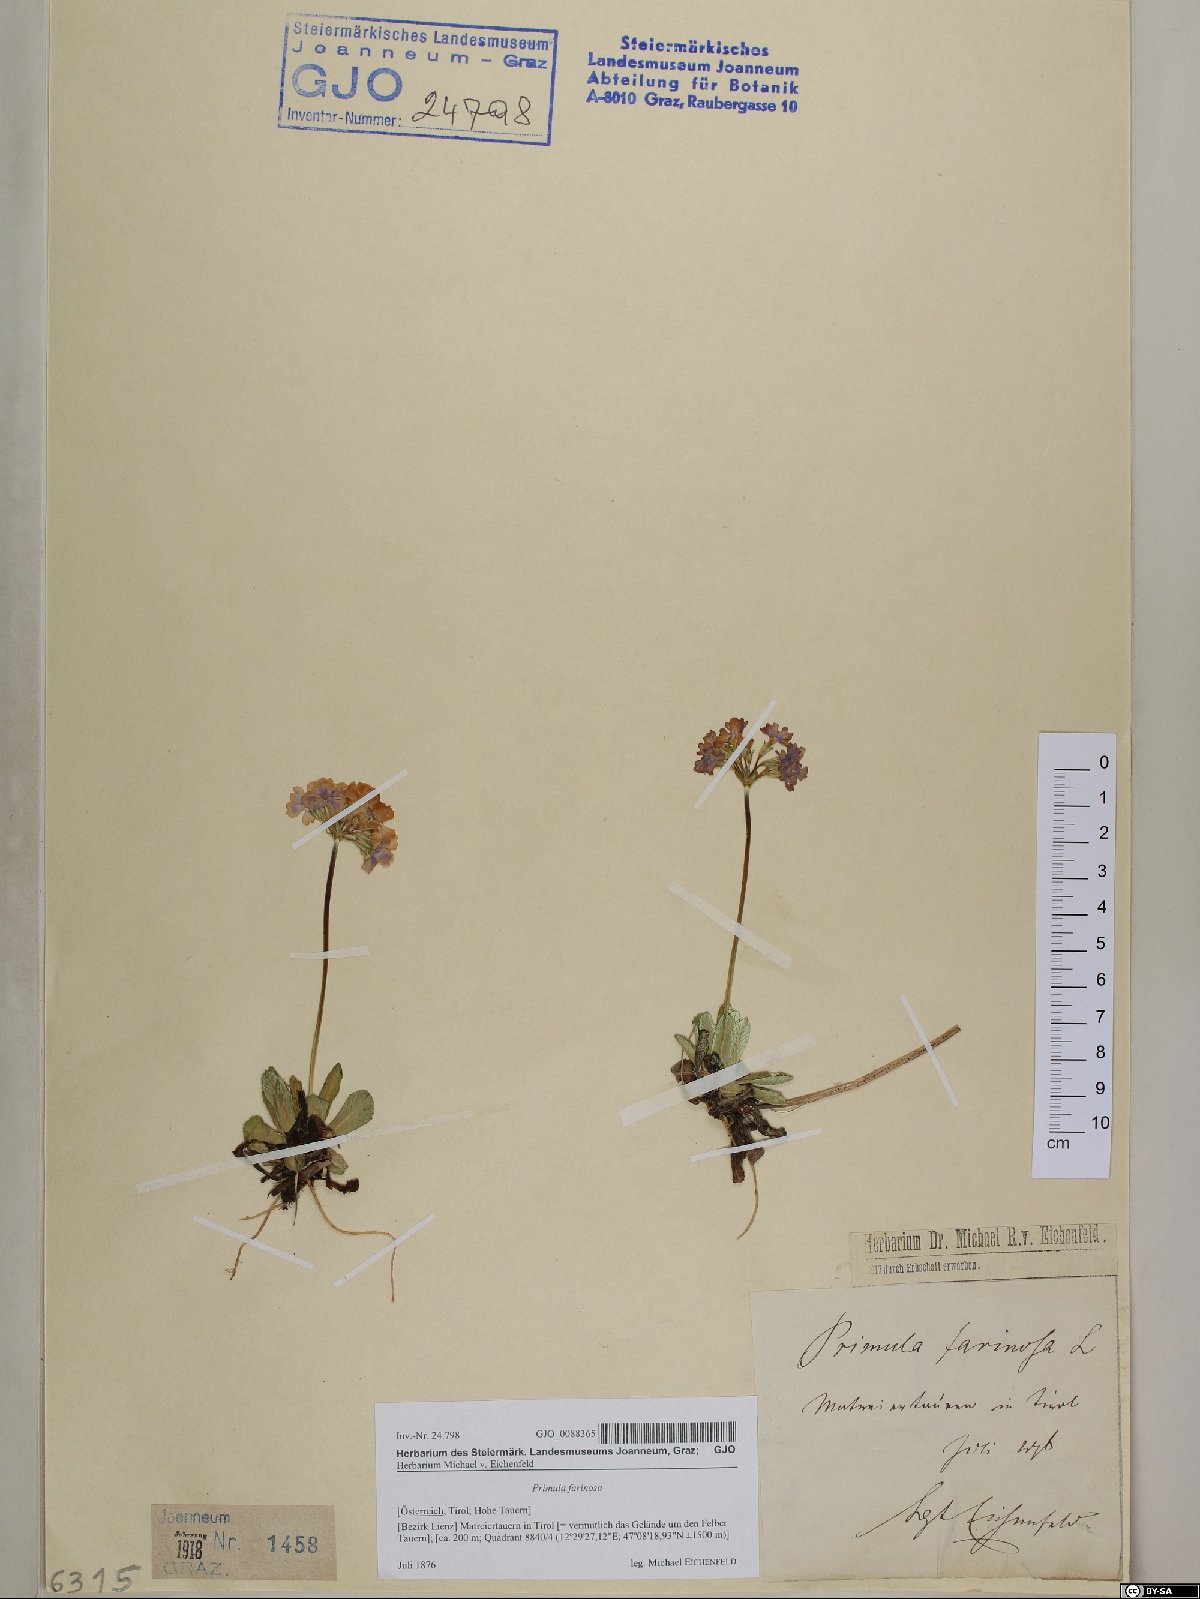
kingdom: Plantae
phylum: Tracheophyta
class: Magnoliopsida
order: Ericales
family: Primulaceae
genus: Primula
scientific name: Primula farinosa
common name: Bird's-eye primrose
